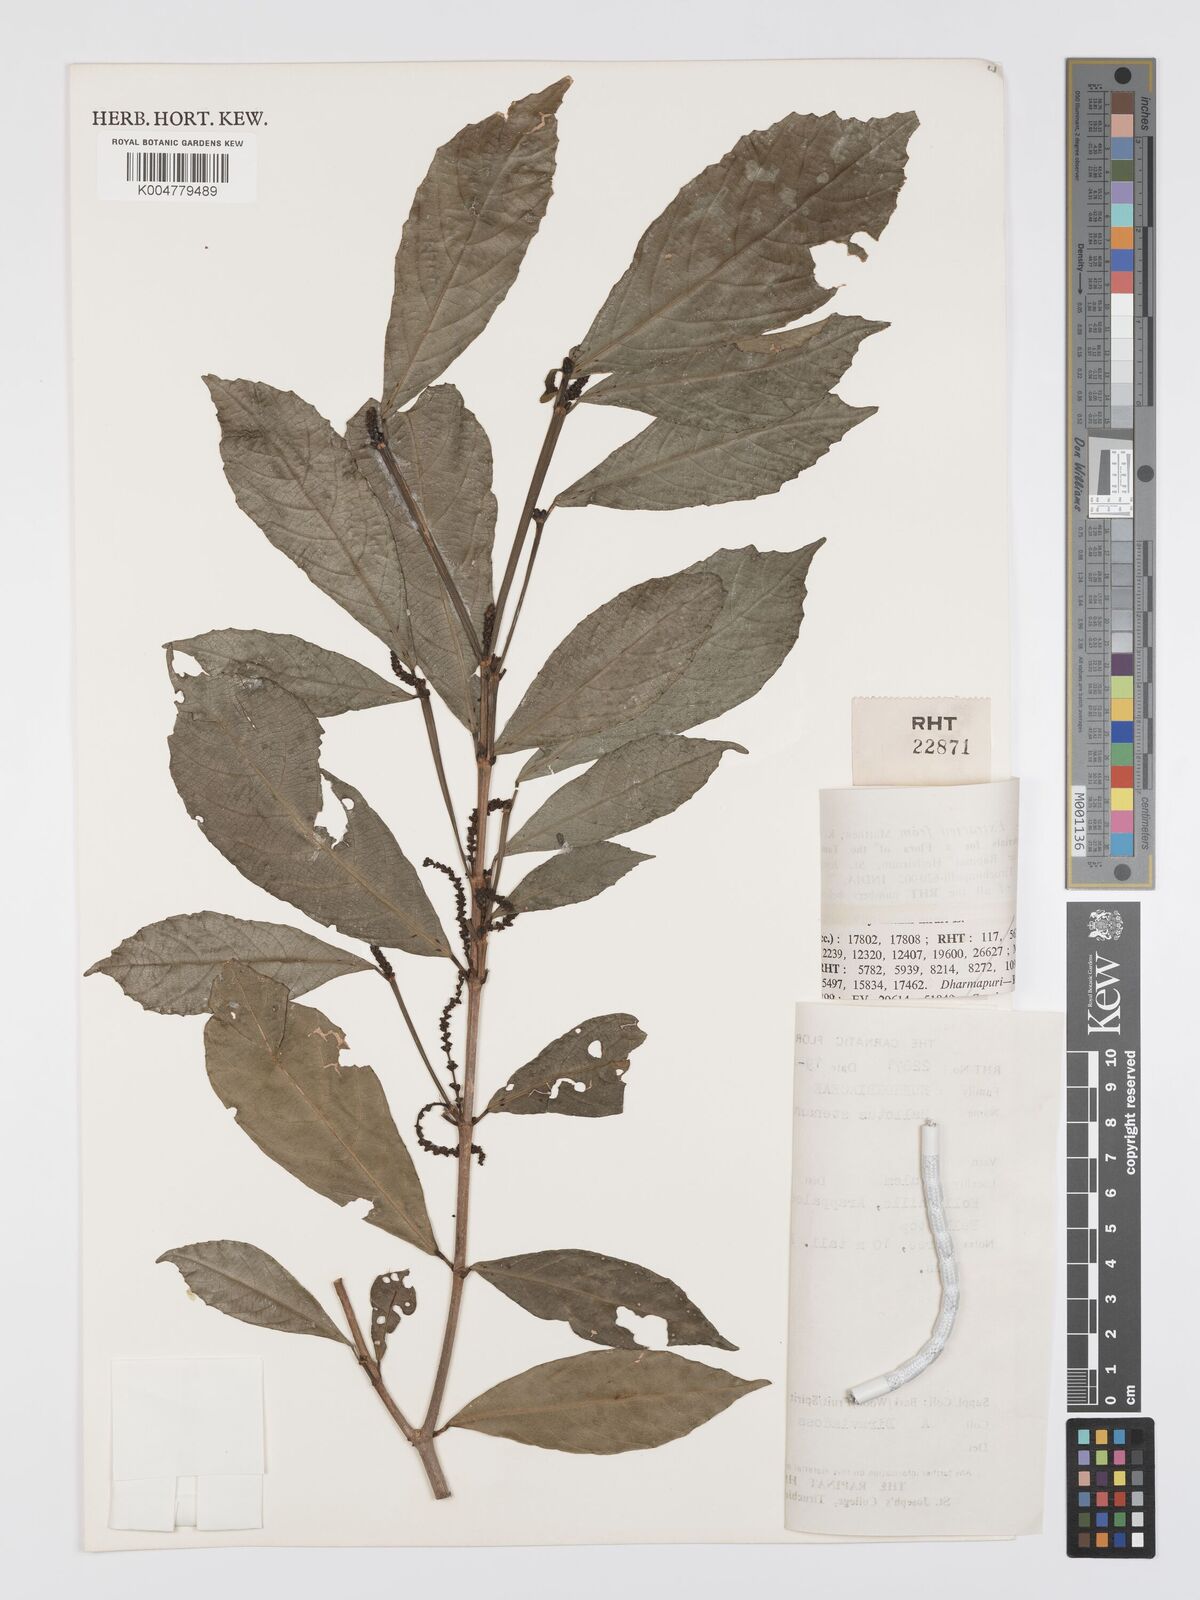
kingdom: Plantae
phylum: Tracheophyta
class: Magnoliopsida
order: Malpighiales
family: Euphorbiaceae
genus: Mallotus
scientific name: Mallotus resinosus
